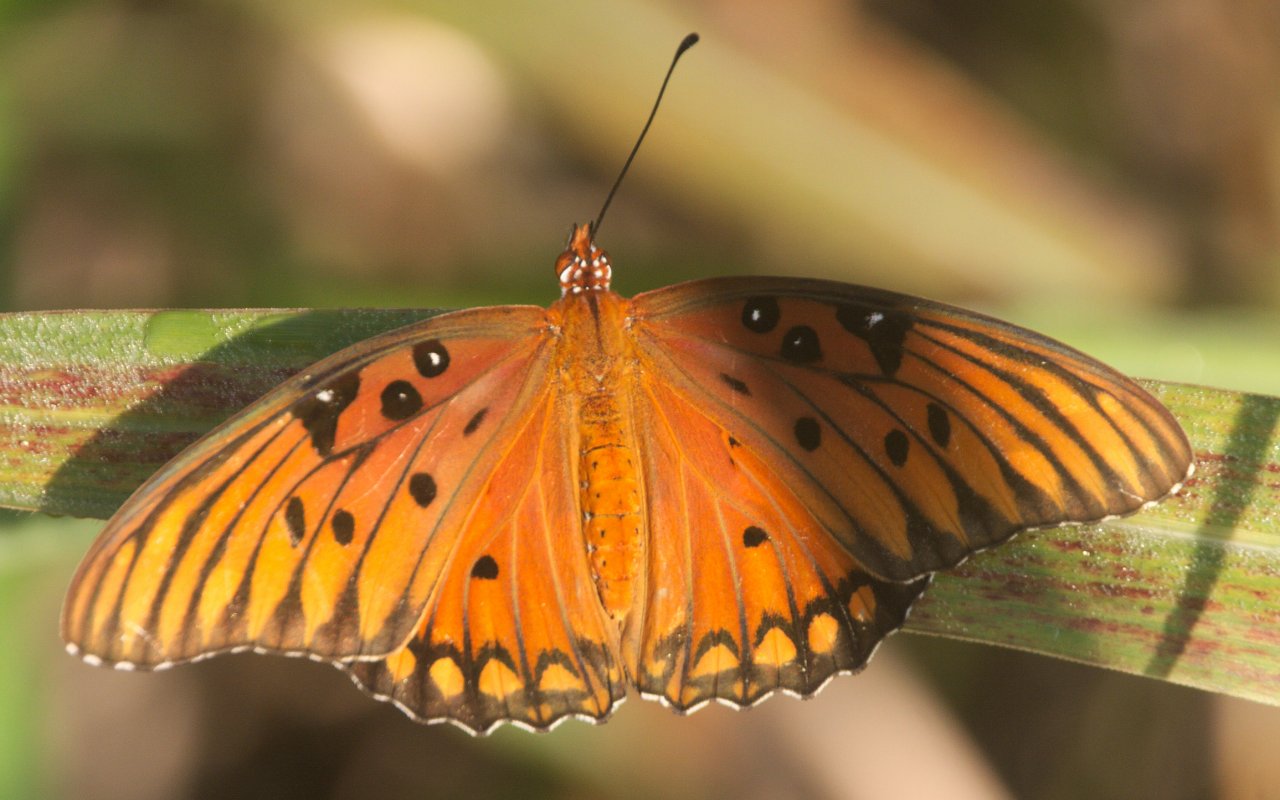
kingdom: Animalia
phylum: Arthropoda
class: Insecta
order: Lepidoptera
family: Nymphalidae
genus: Dione
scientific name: Dione vanillae
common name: Gulf Fritillary
